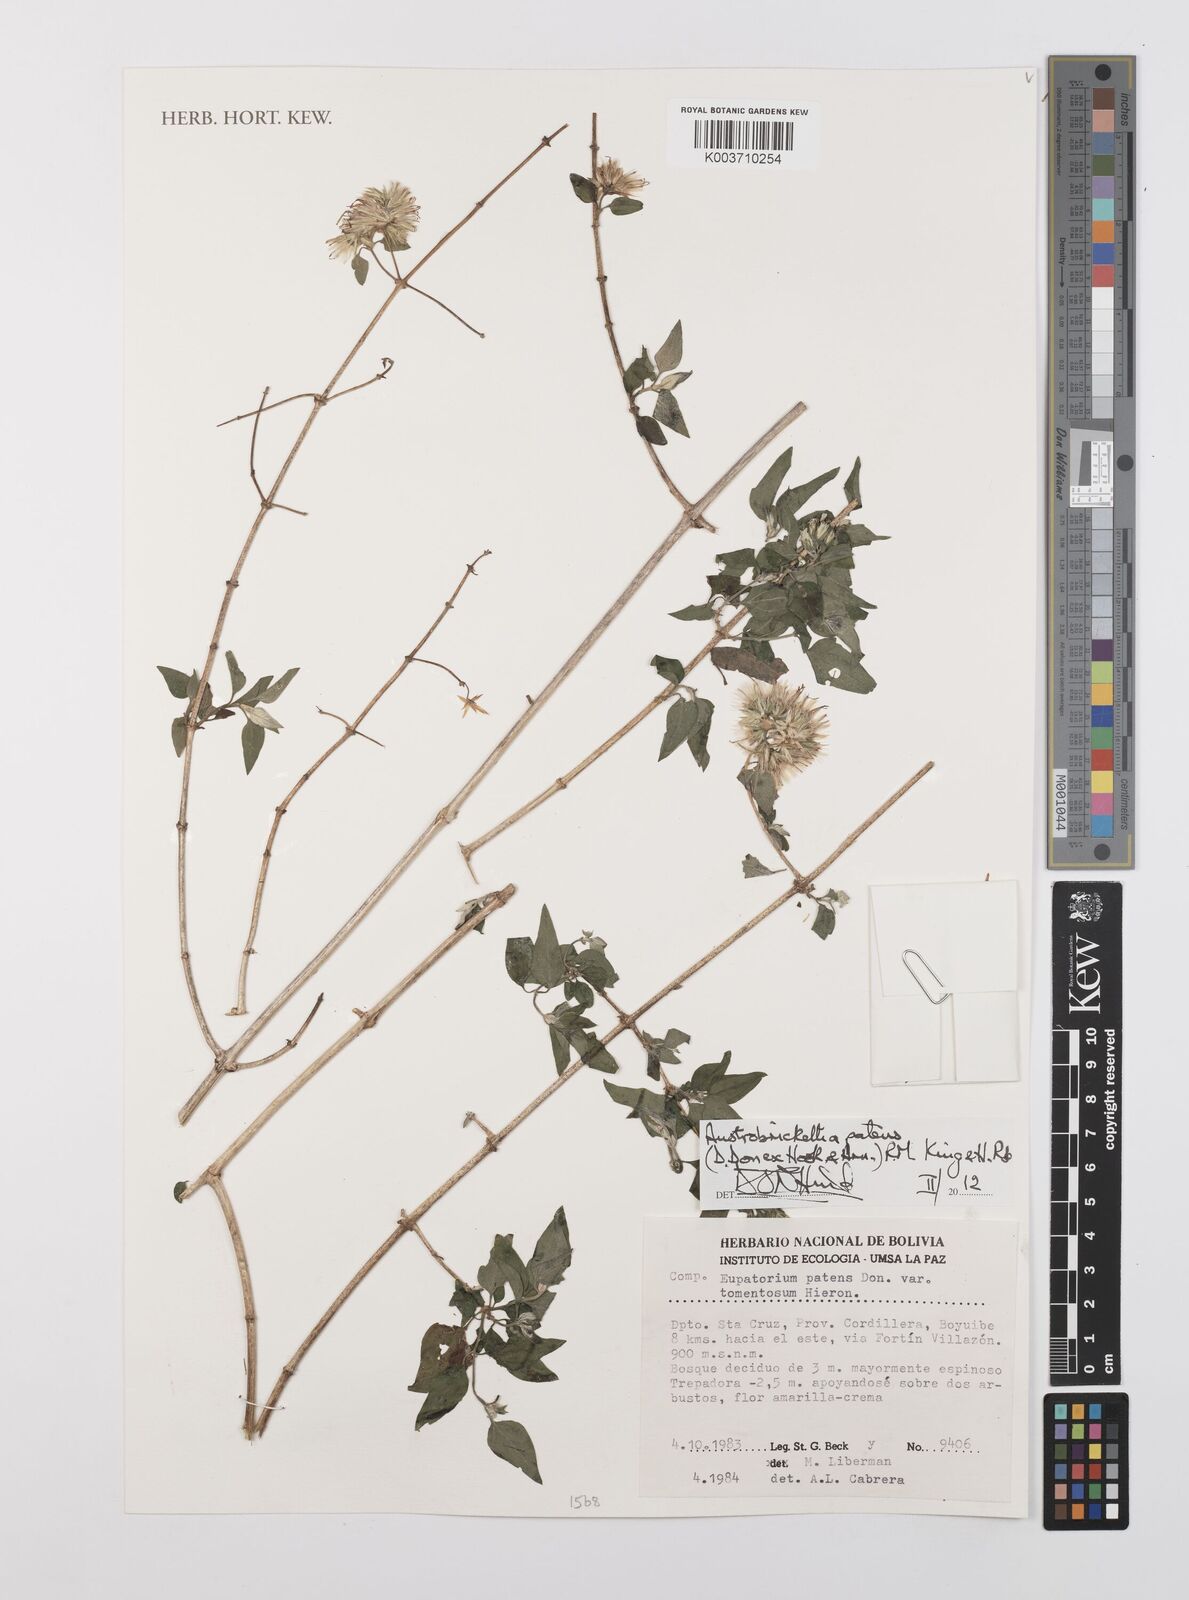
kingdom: Plantae
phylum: Tracheophyta
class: Magnoliopsida
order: Asterales
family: Asteraceae
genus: Austrobrickellia
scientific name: Austrobrickellia patens
